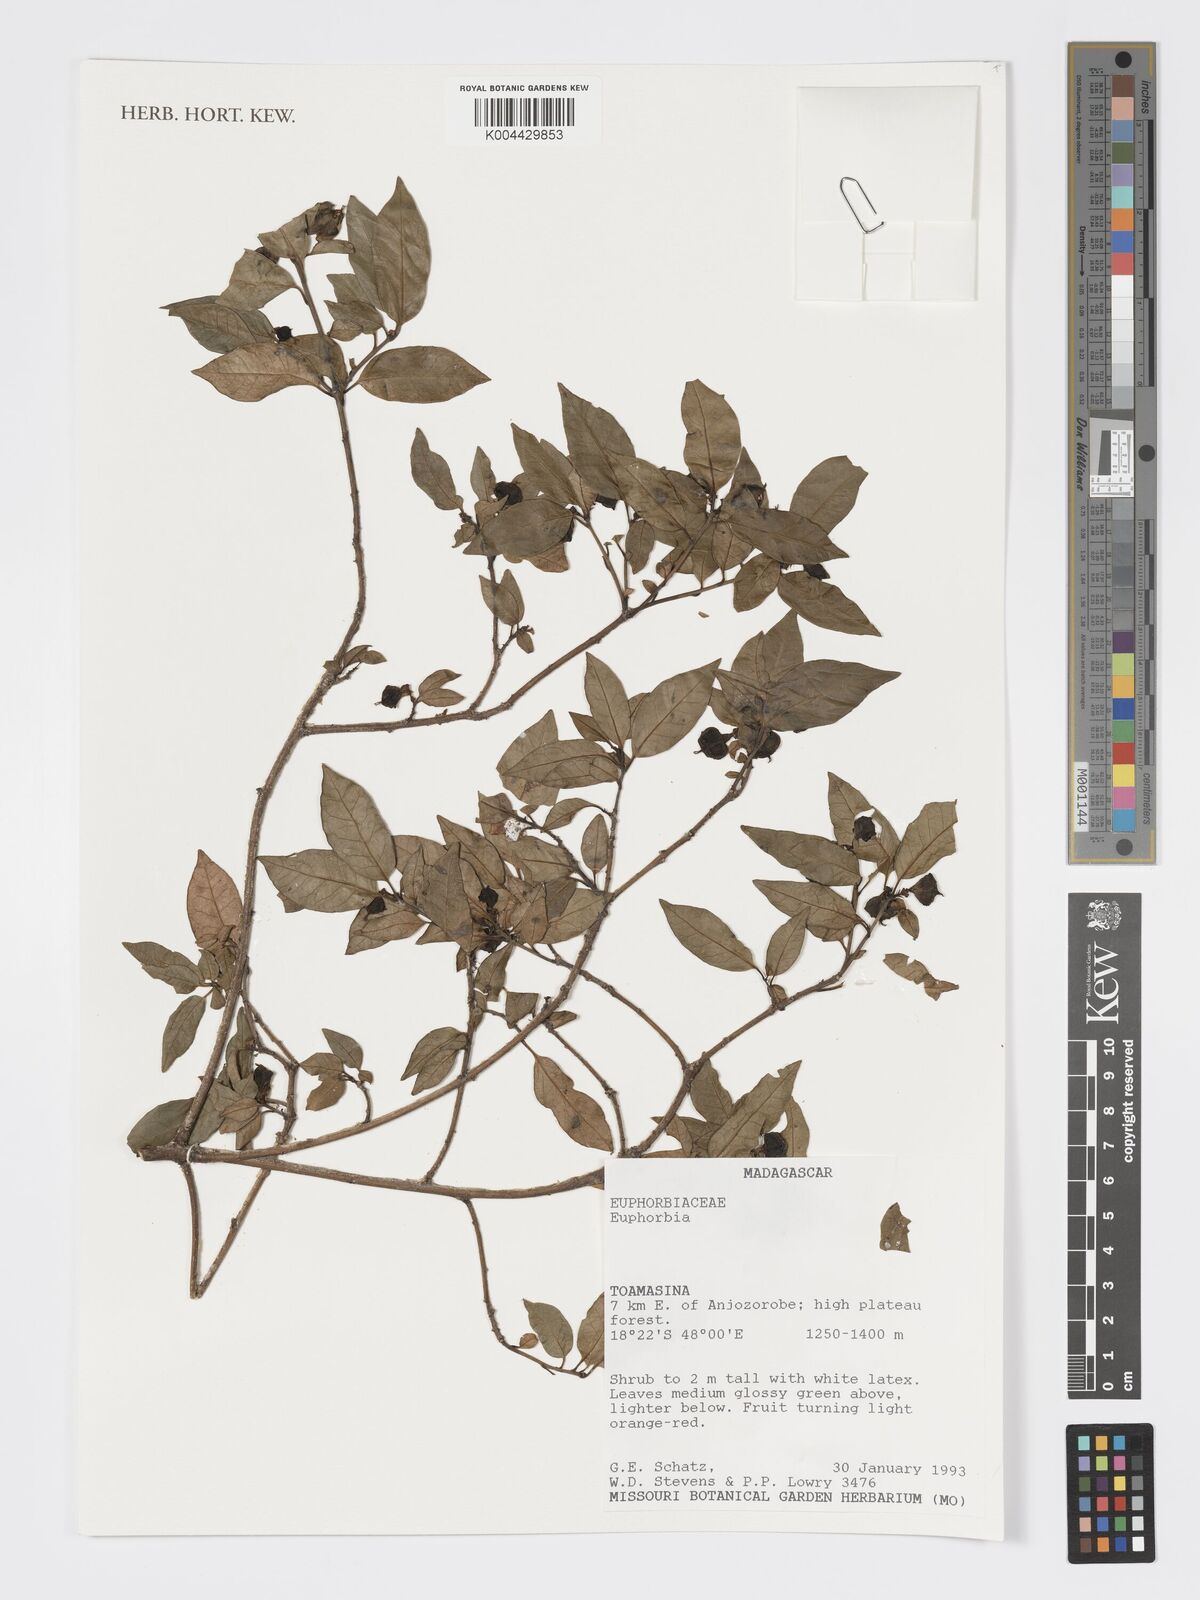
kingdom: Plantae
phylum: Tracheophyta
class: Magnoliopsida
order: Malpighiales
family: Euphorbiaceae
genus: Euphorbia
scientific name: Euphorbia tetraptera
